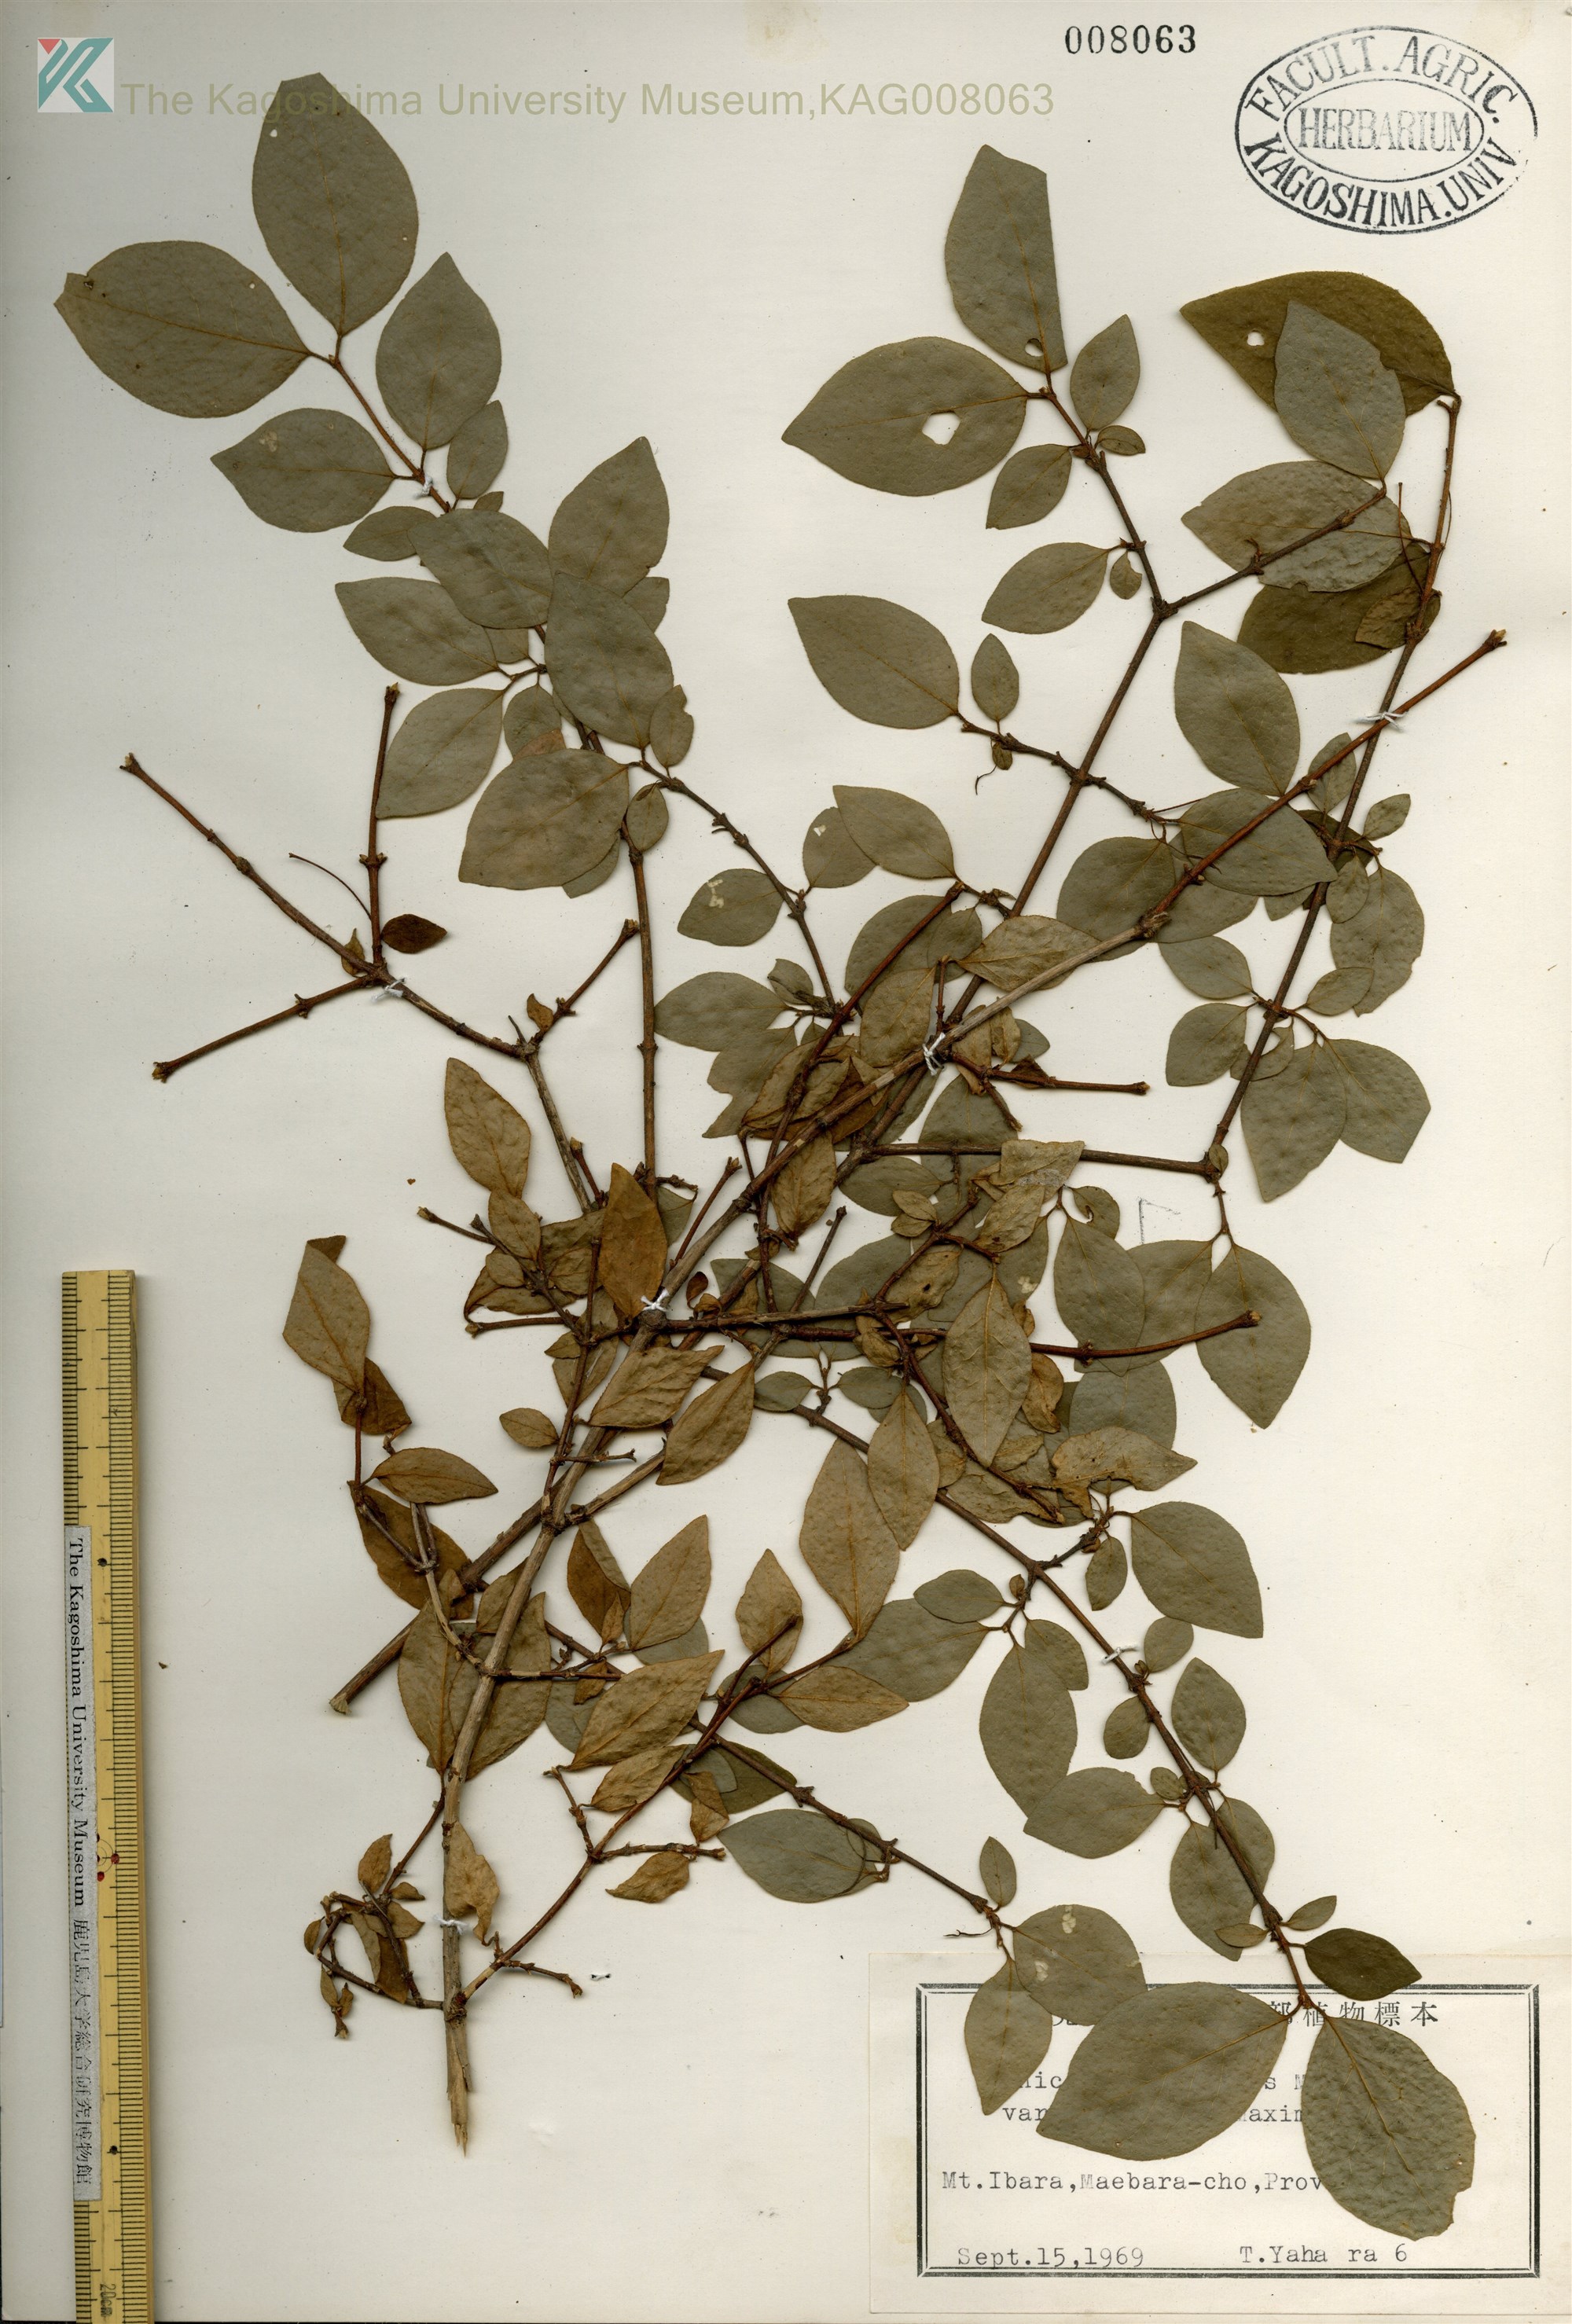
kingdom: Plantae
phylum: Tracheophyta
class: Magnoliopsida
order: Dipsacales
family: Caprifoliaceae
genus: Lonicera
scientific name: Lonicera gracilipes
